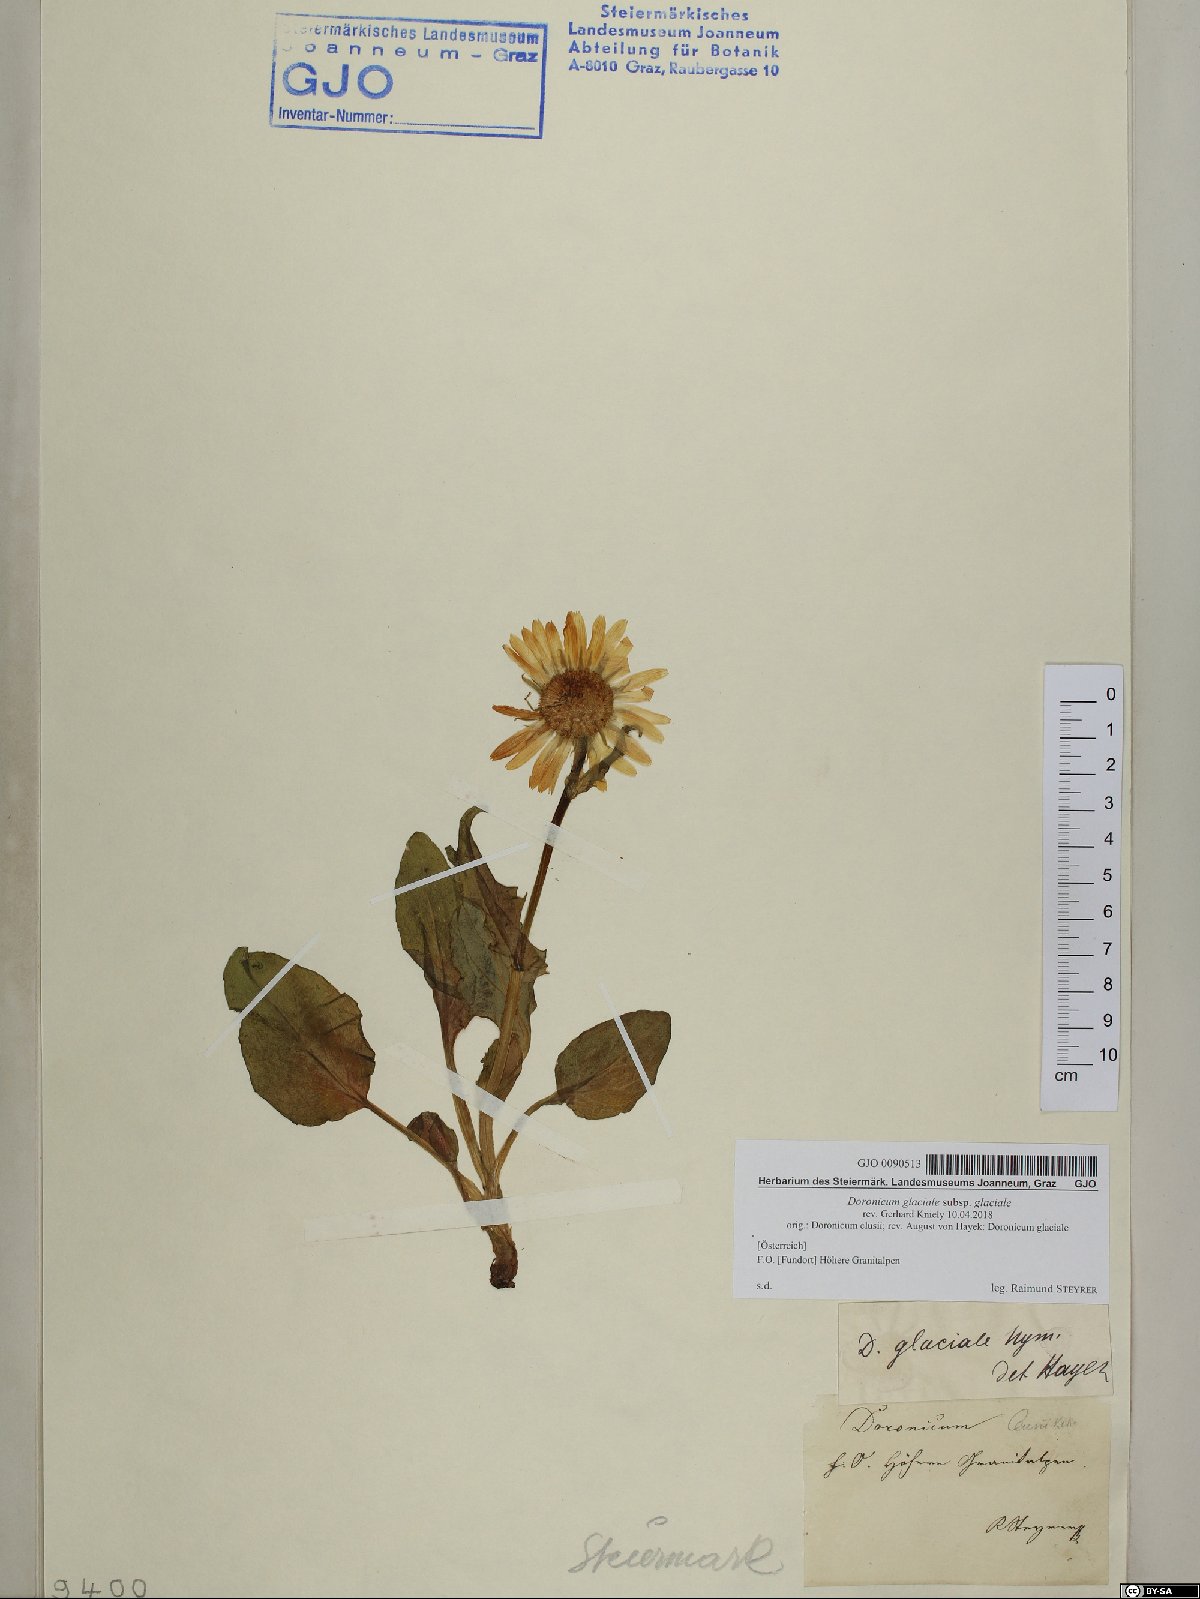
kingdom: Plantae
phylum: Tracheophyta
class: Magnoliopsida
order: Asterales
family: Asteraceae
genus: Doronicum
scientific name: Doronicum glaciale
